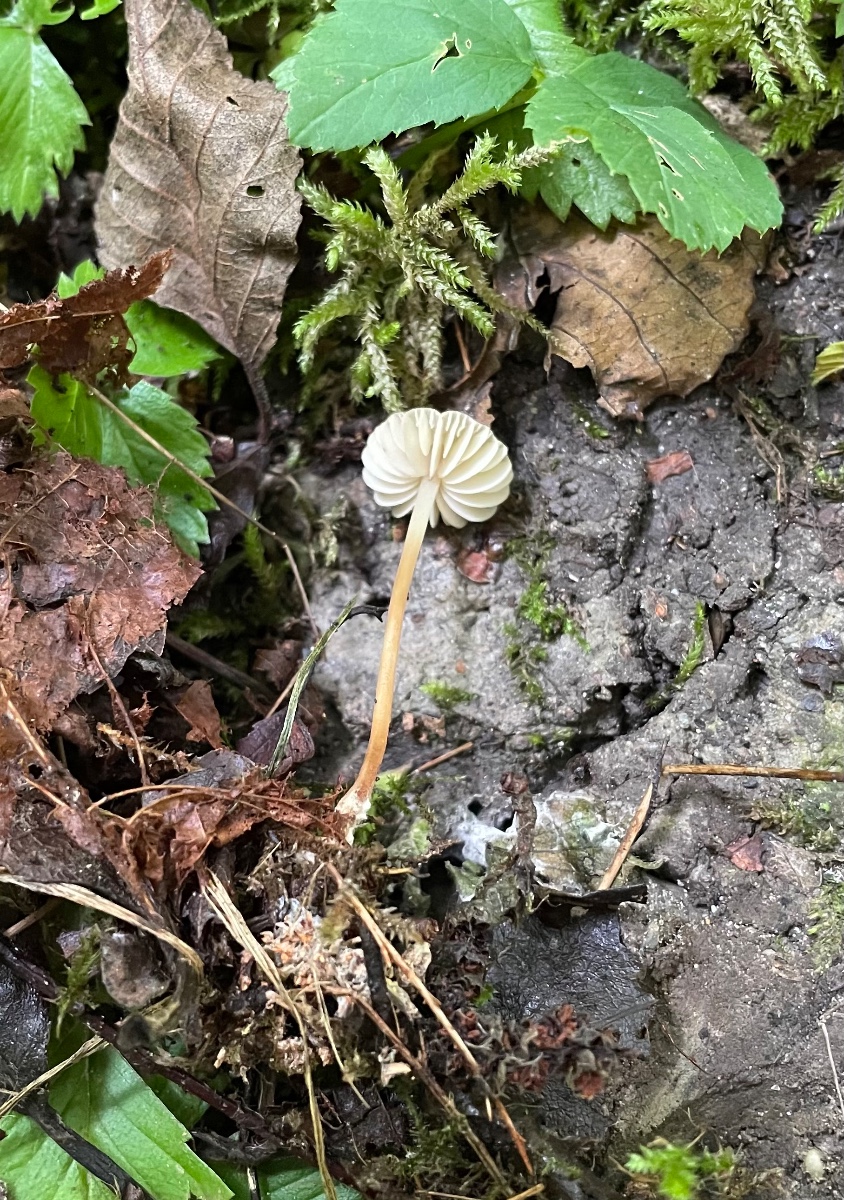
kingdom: Fungi
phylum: Basidiomycota
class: Agaricomycetes
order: Agaricales
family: Marasmiaceae
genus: Marasmius
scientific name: Marasmius torquescens
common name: filtfodet bruskhat
